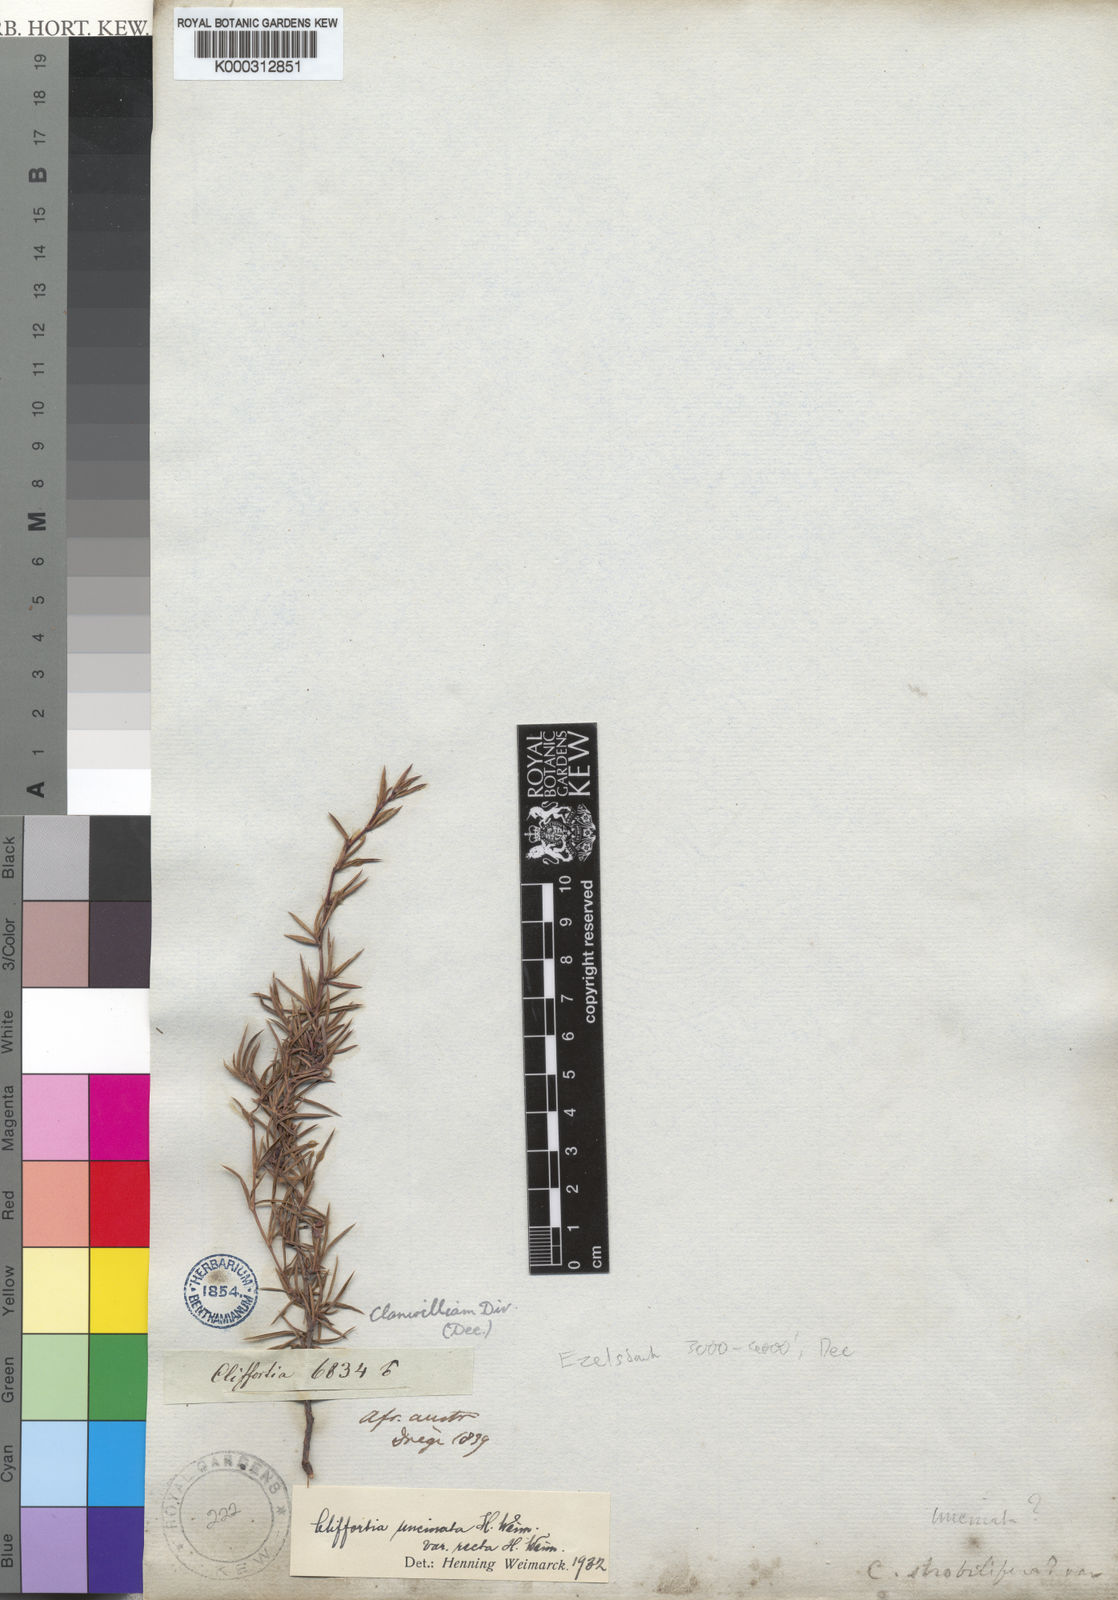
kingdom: Plantae
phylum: Tracheophyta
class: Magnoliopsida
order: Rosales
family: Rosaceae
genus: Cliffortia
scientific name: Cliffortia uncinata
